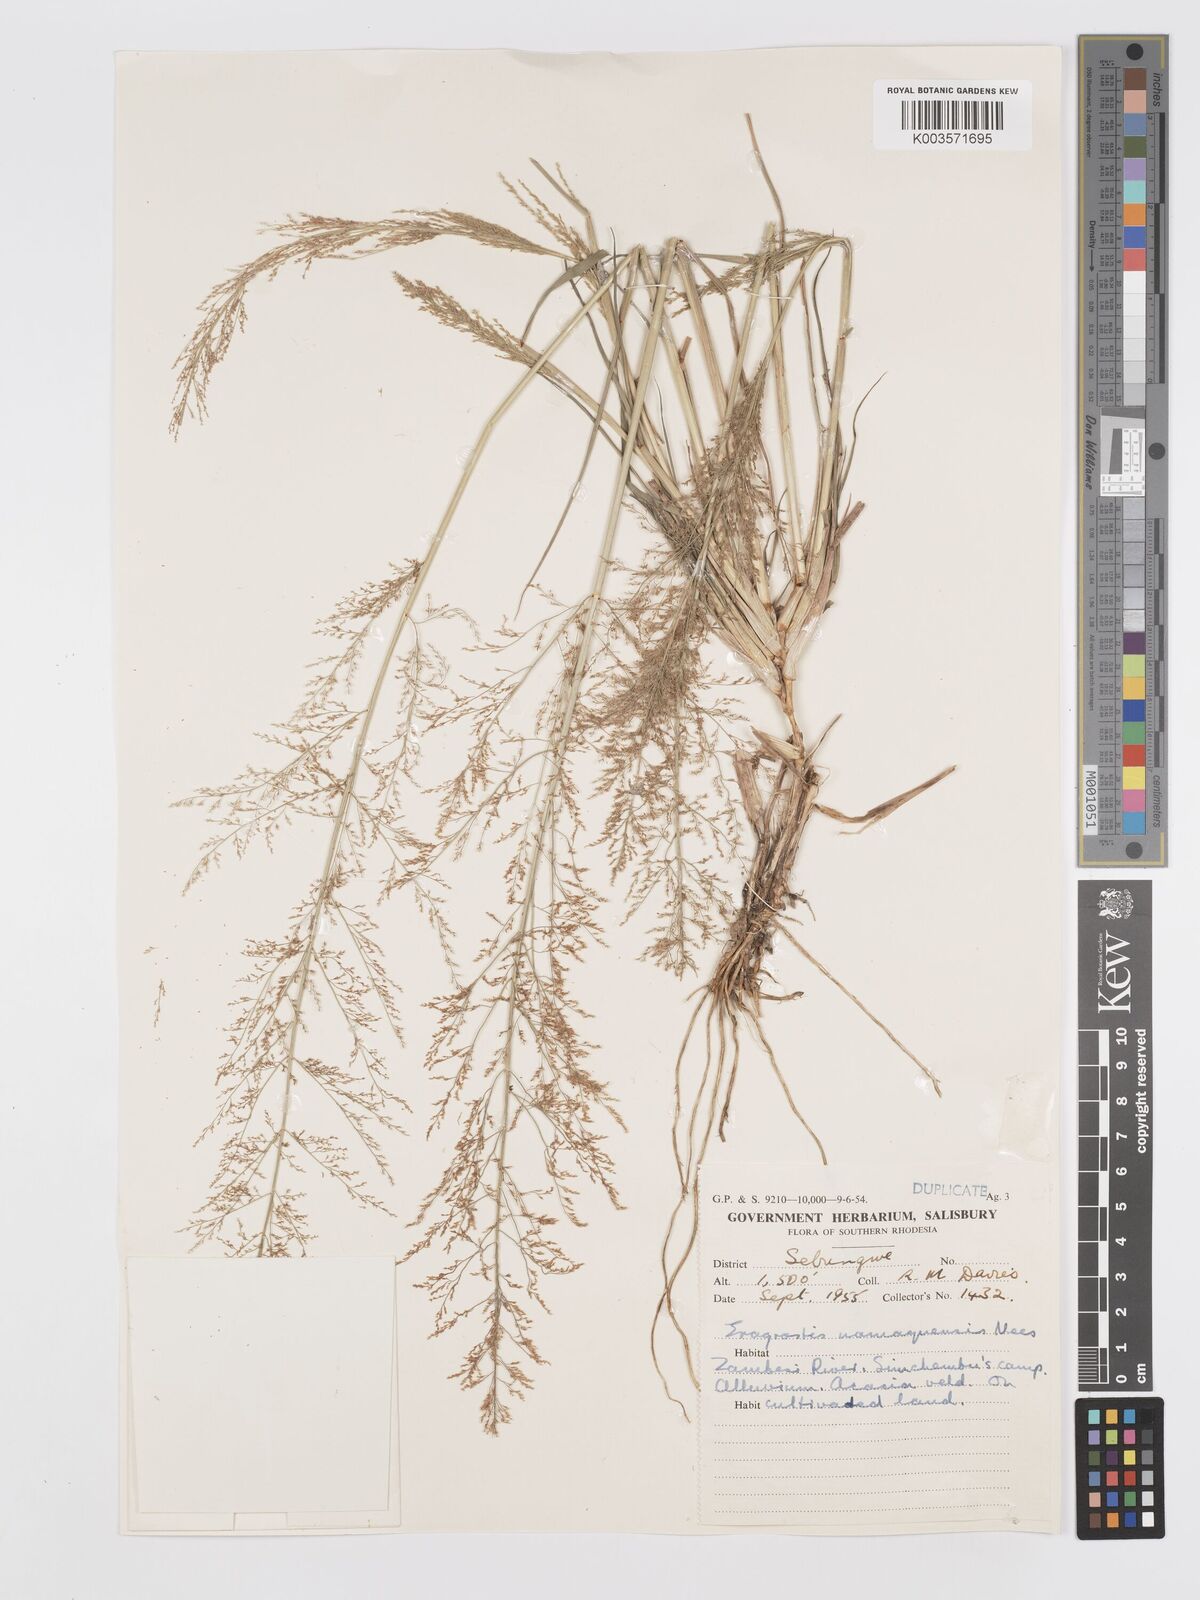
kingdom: Plantae
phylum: Tracheophyta
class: Liliopsida
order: Poales
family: Poaceae
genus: Eragrostis
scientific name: Eragrostis japonica
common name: Pond lovegrass
